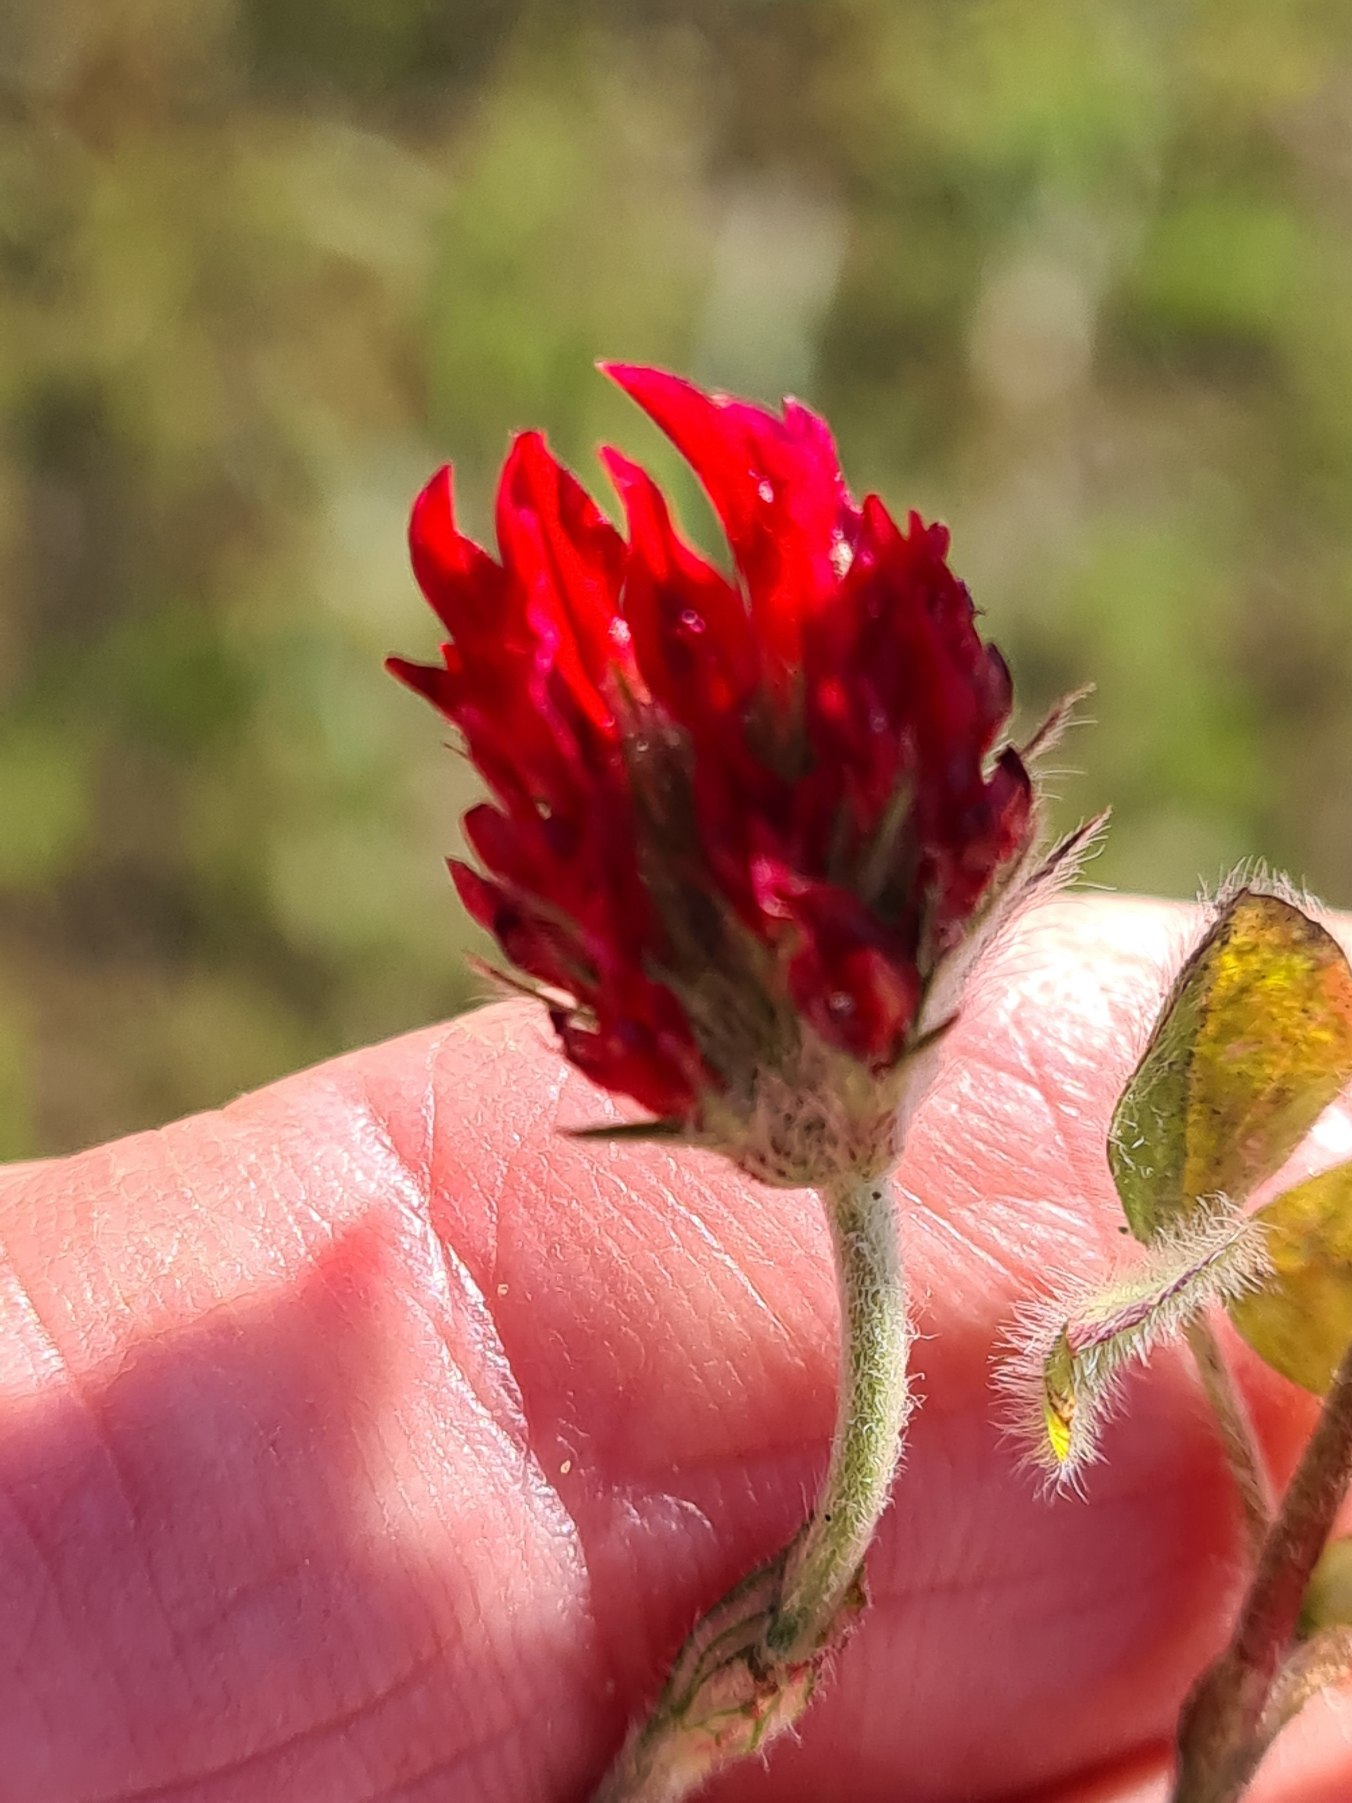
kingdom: Plantae
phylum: Tracheophyta
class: Magnoliopsida
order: Fabales
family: Fabaceae
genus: Trifolium
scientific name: Trifolium incarnatum
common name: Blod-kløver
